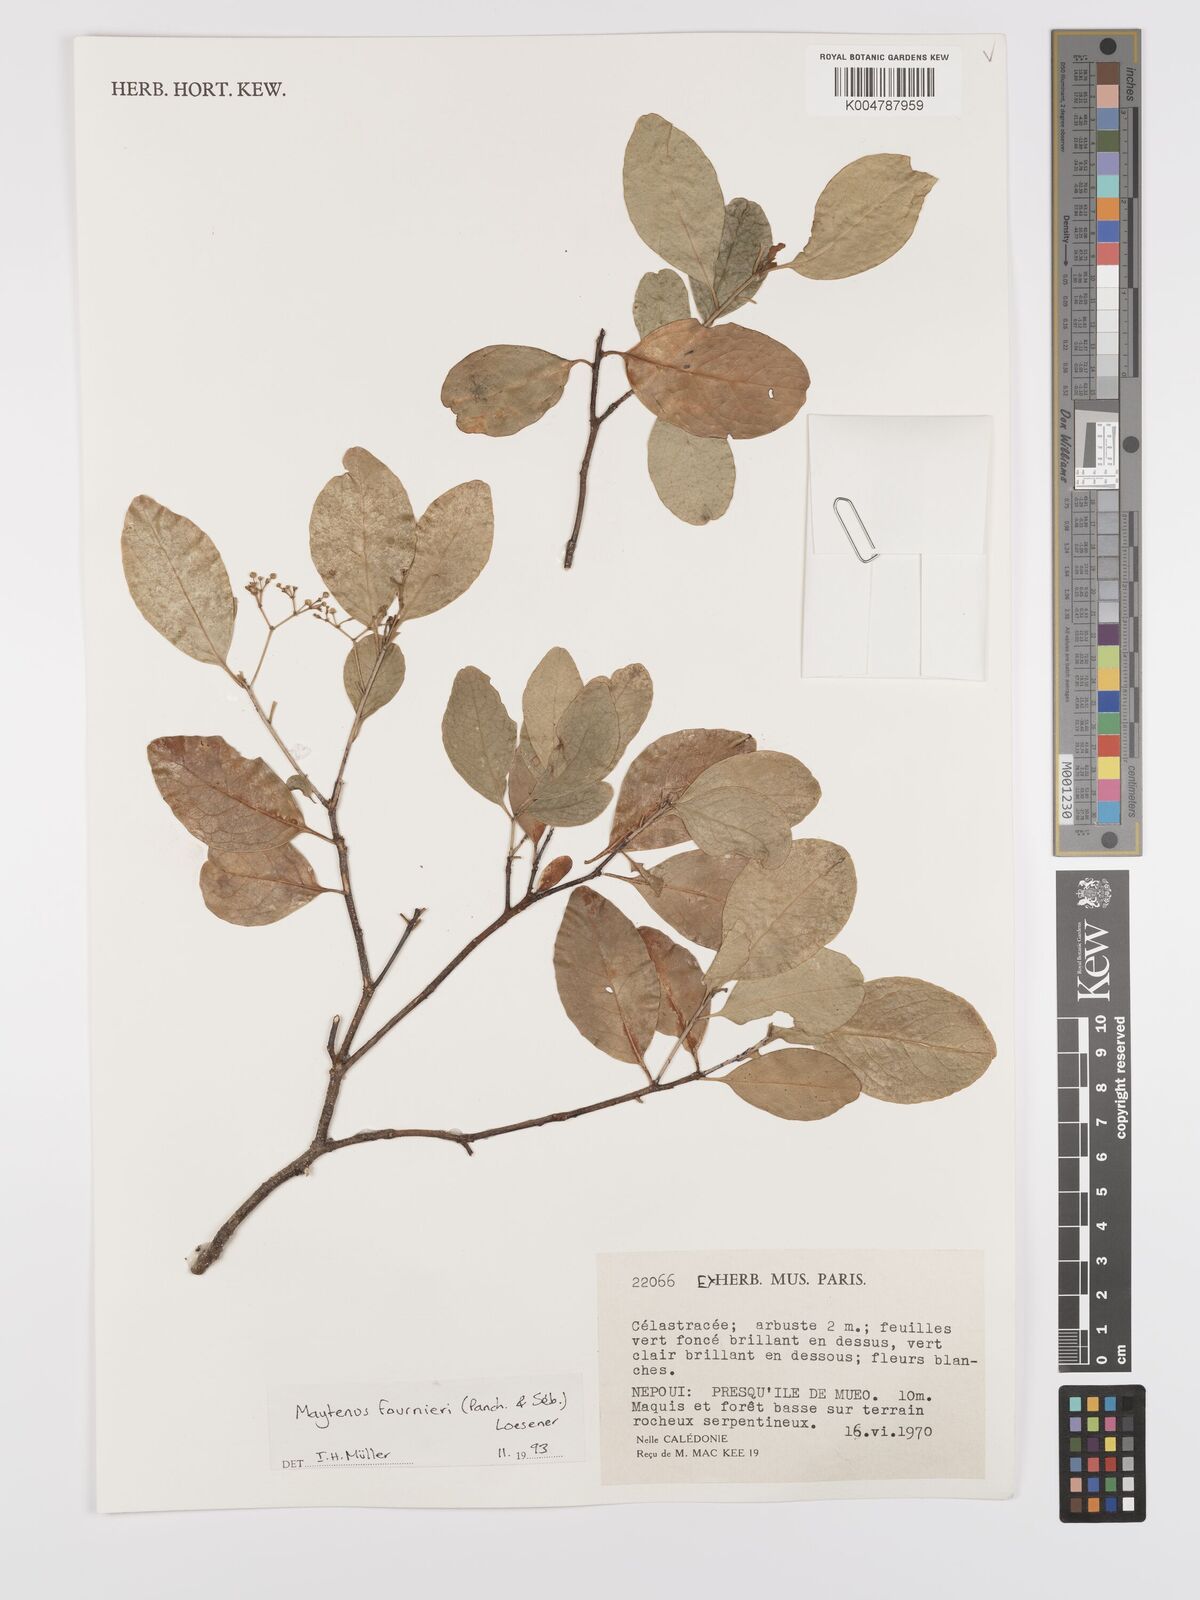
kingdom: Plantae
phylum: Tracheophyta
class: Magnoliopsida
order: Celastrales
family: Celastraceae
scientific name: Celastraceae
